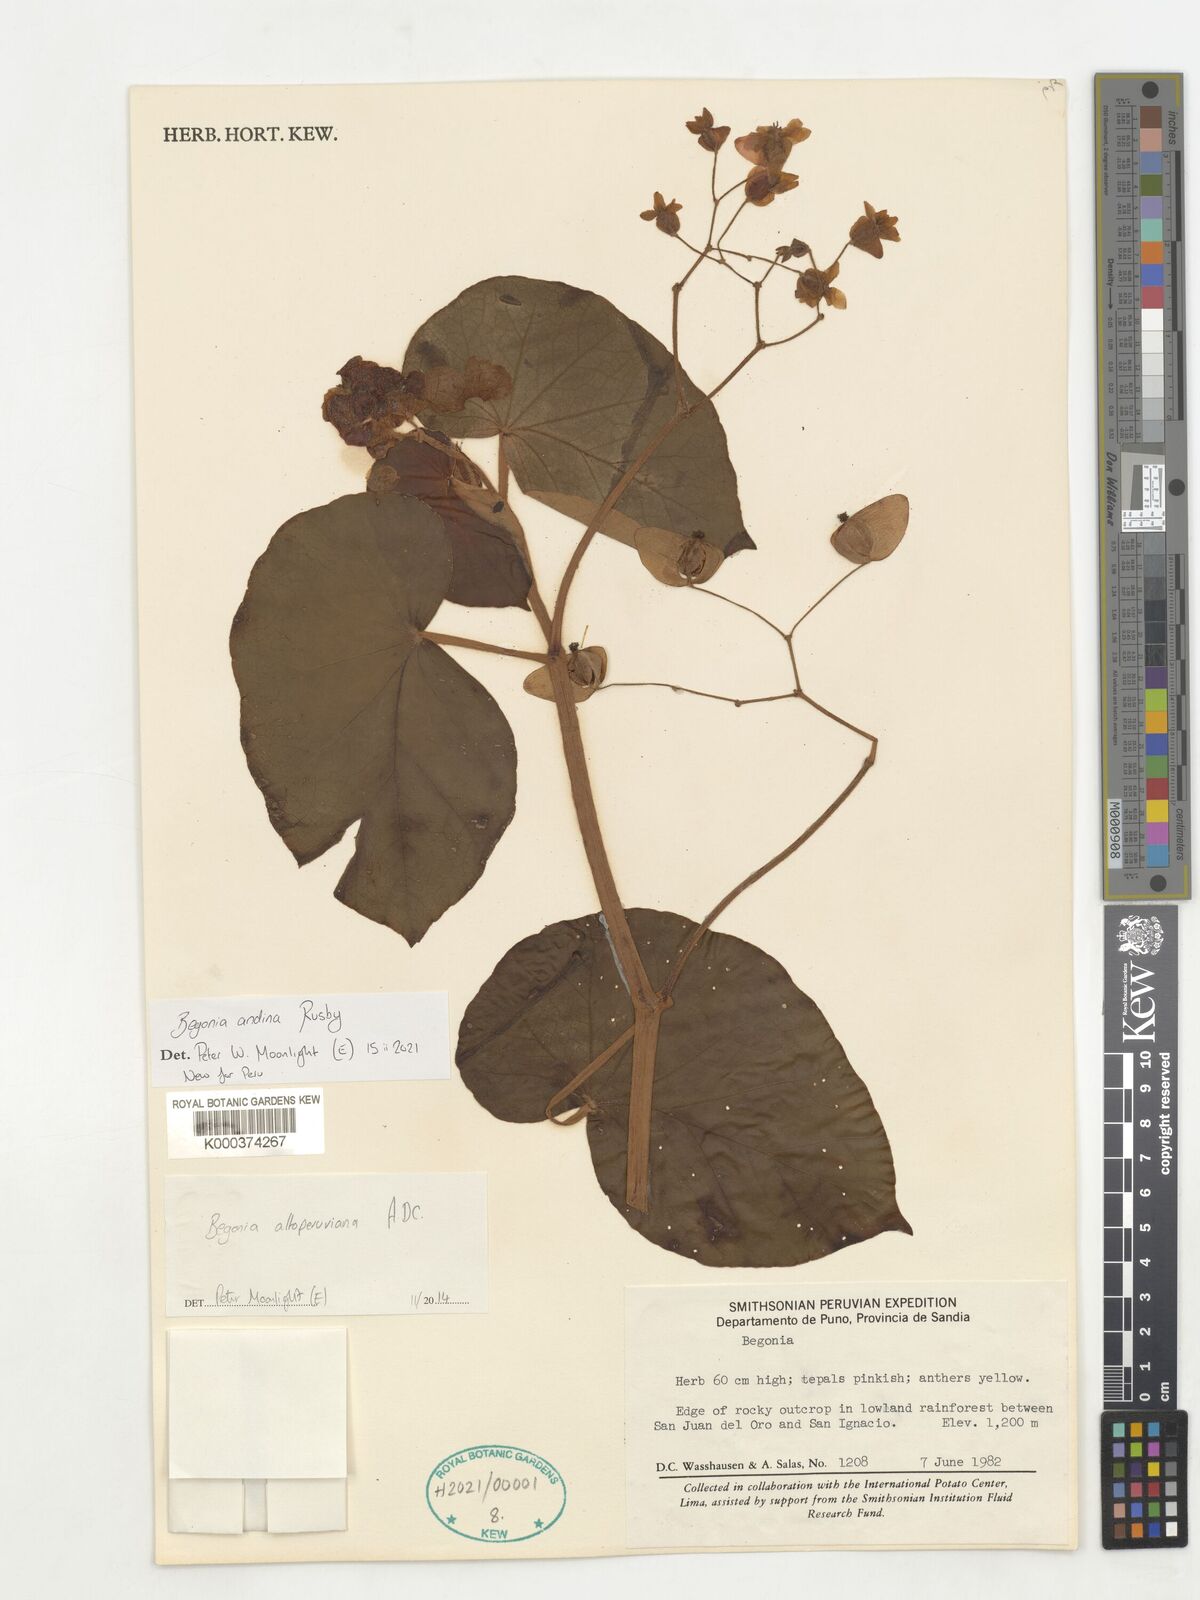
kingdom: Plantae
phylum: Tracheophyta
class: Magnoliopsida
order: Cucurbitales
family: Begoniaceae
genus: Begonia
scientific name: Begonia andina
